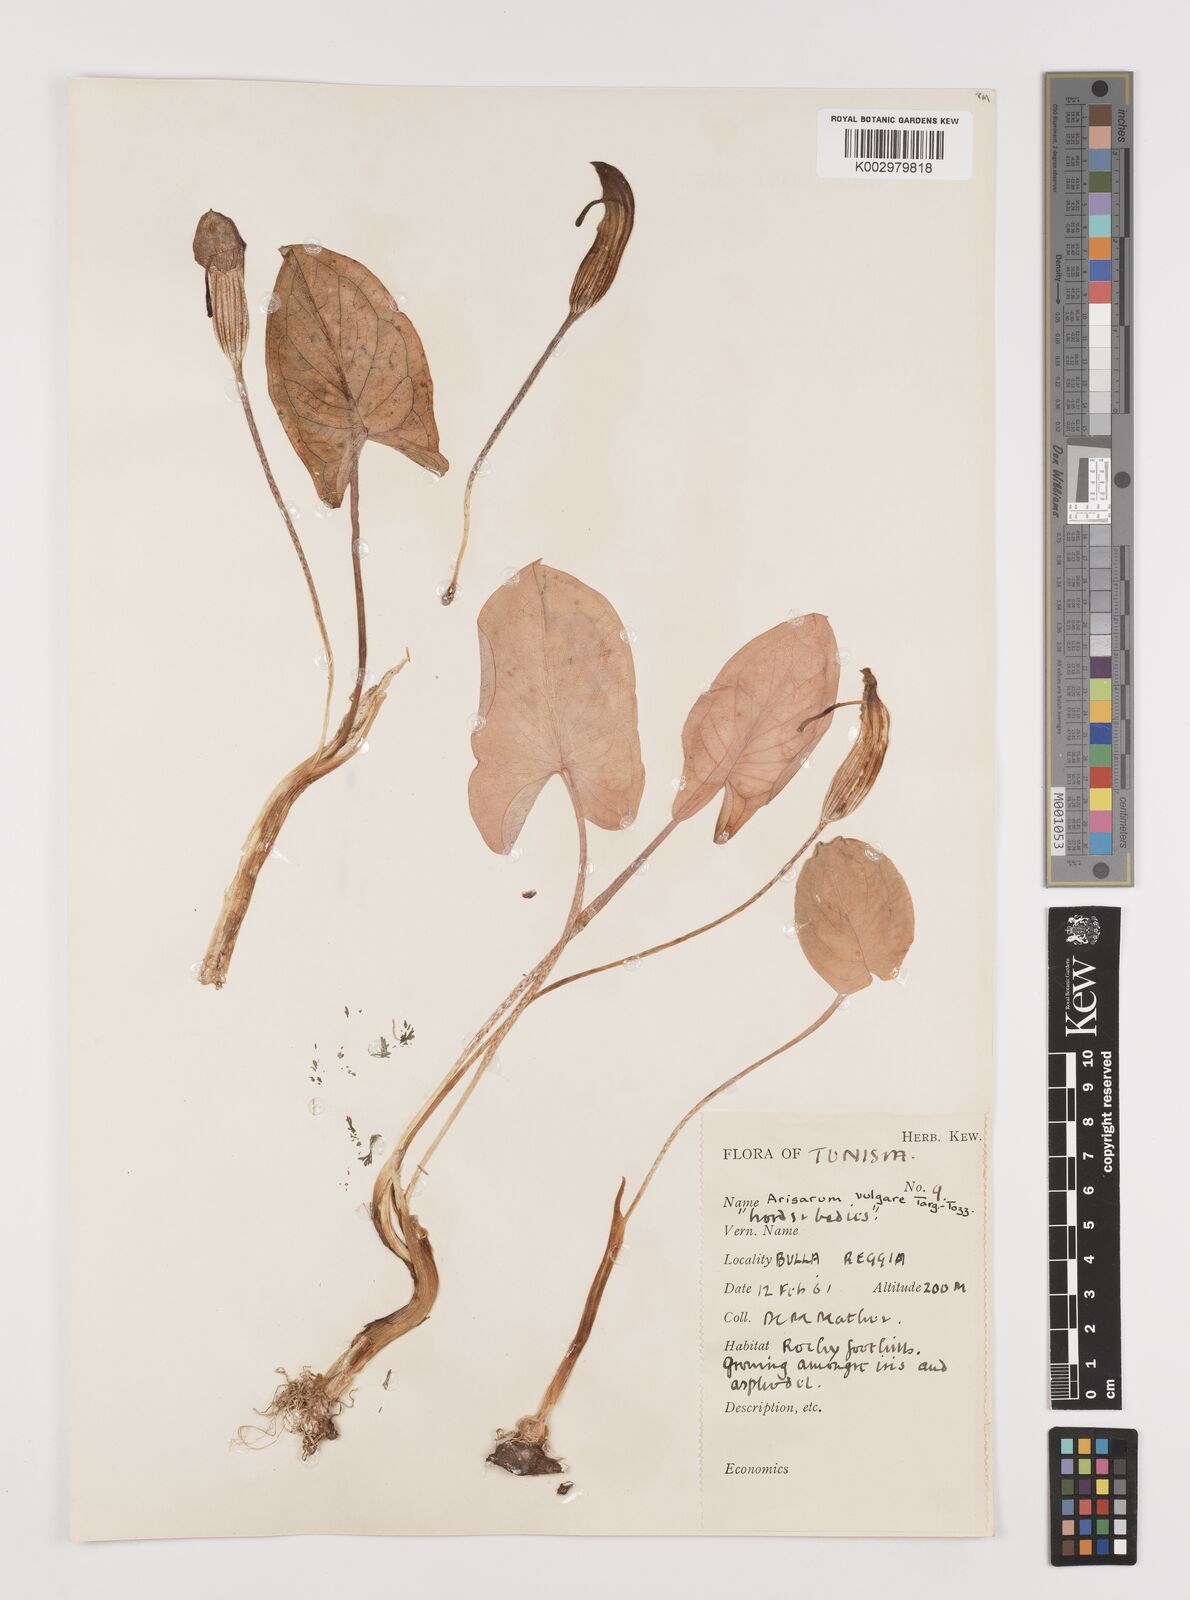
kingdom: Plantae
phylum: Tracheophyta
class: Liliopsida
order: Alismatales
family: Araceae
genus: Arisarum
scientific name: Arisarum vulgare
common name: Common arisarum
